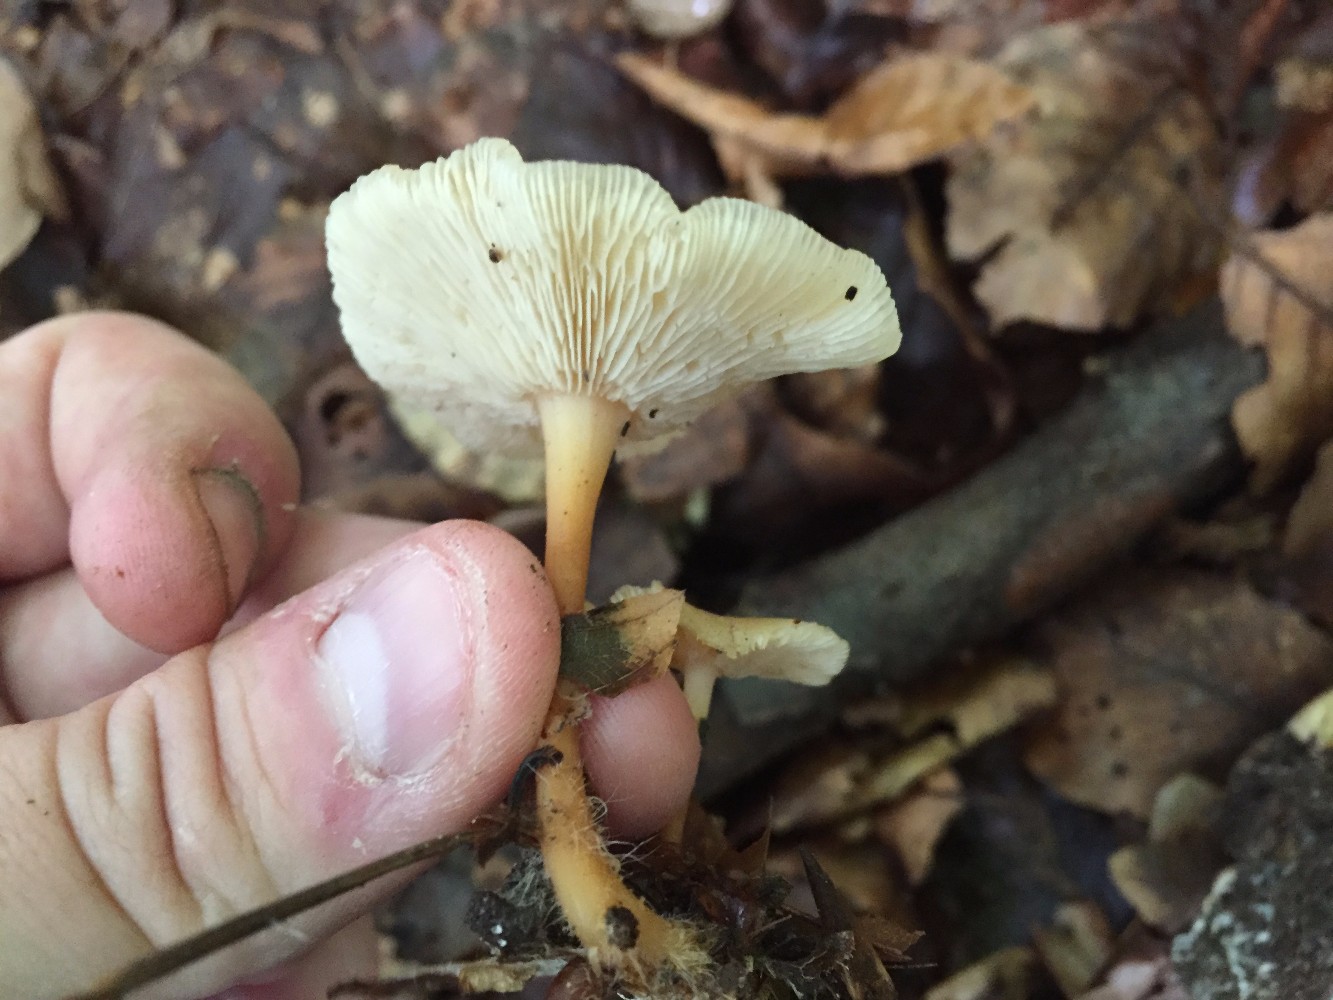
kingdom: Fungi
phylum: Basidiomycota
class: Agaricomycetes
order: Agaricales
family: Omphalotaceae
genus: Gymnopus
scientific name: Gymnopus dryophilus
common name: løv-fladhat
